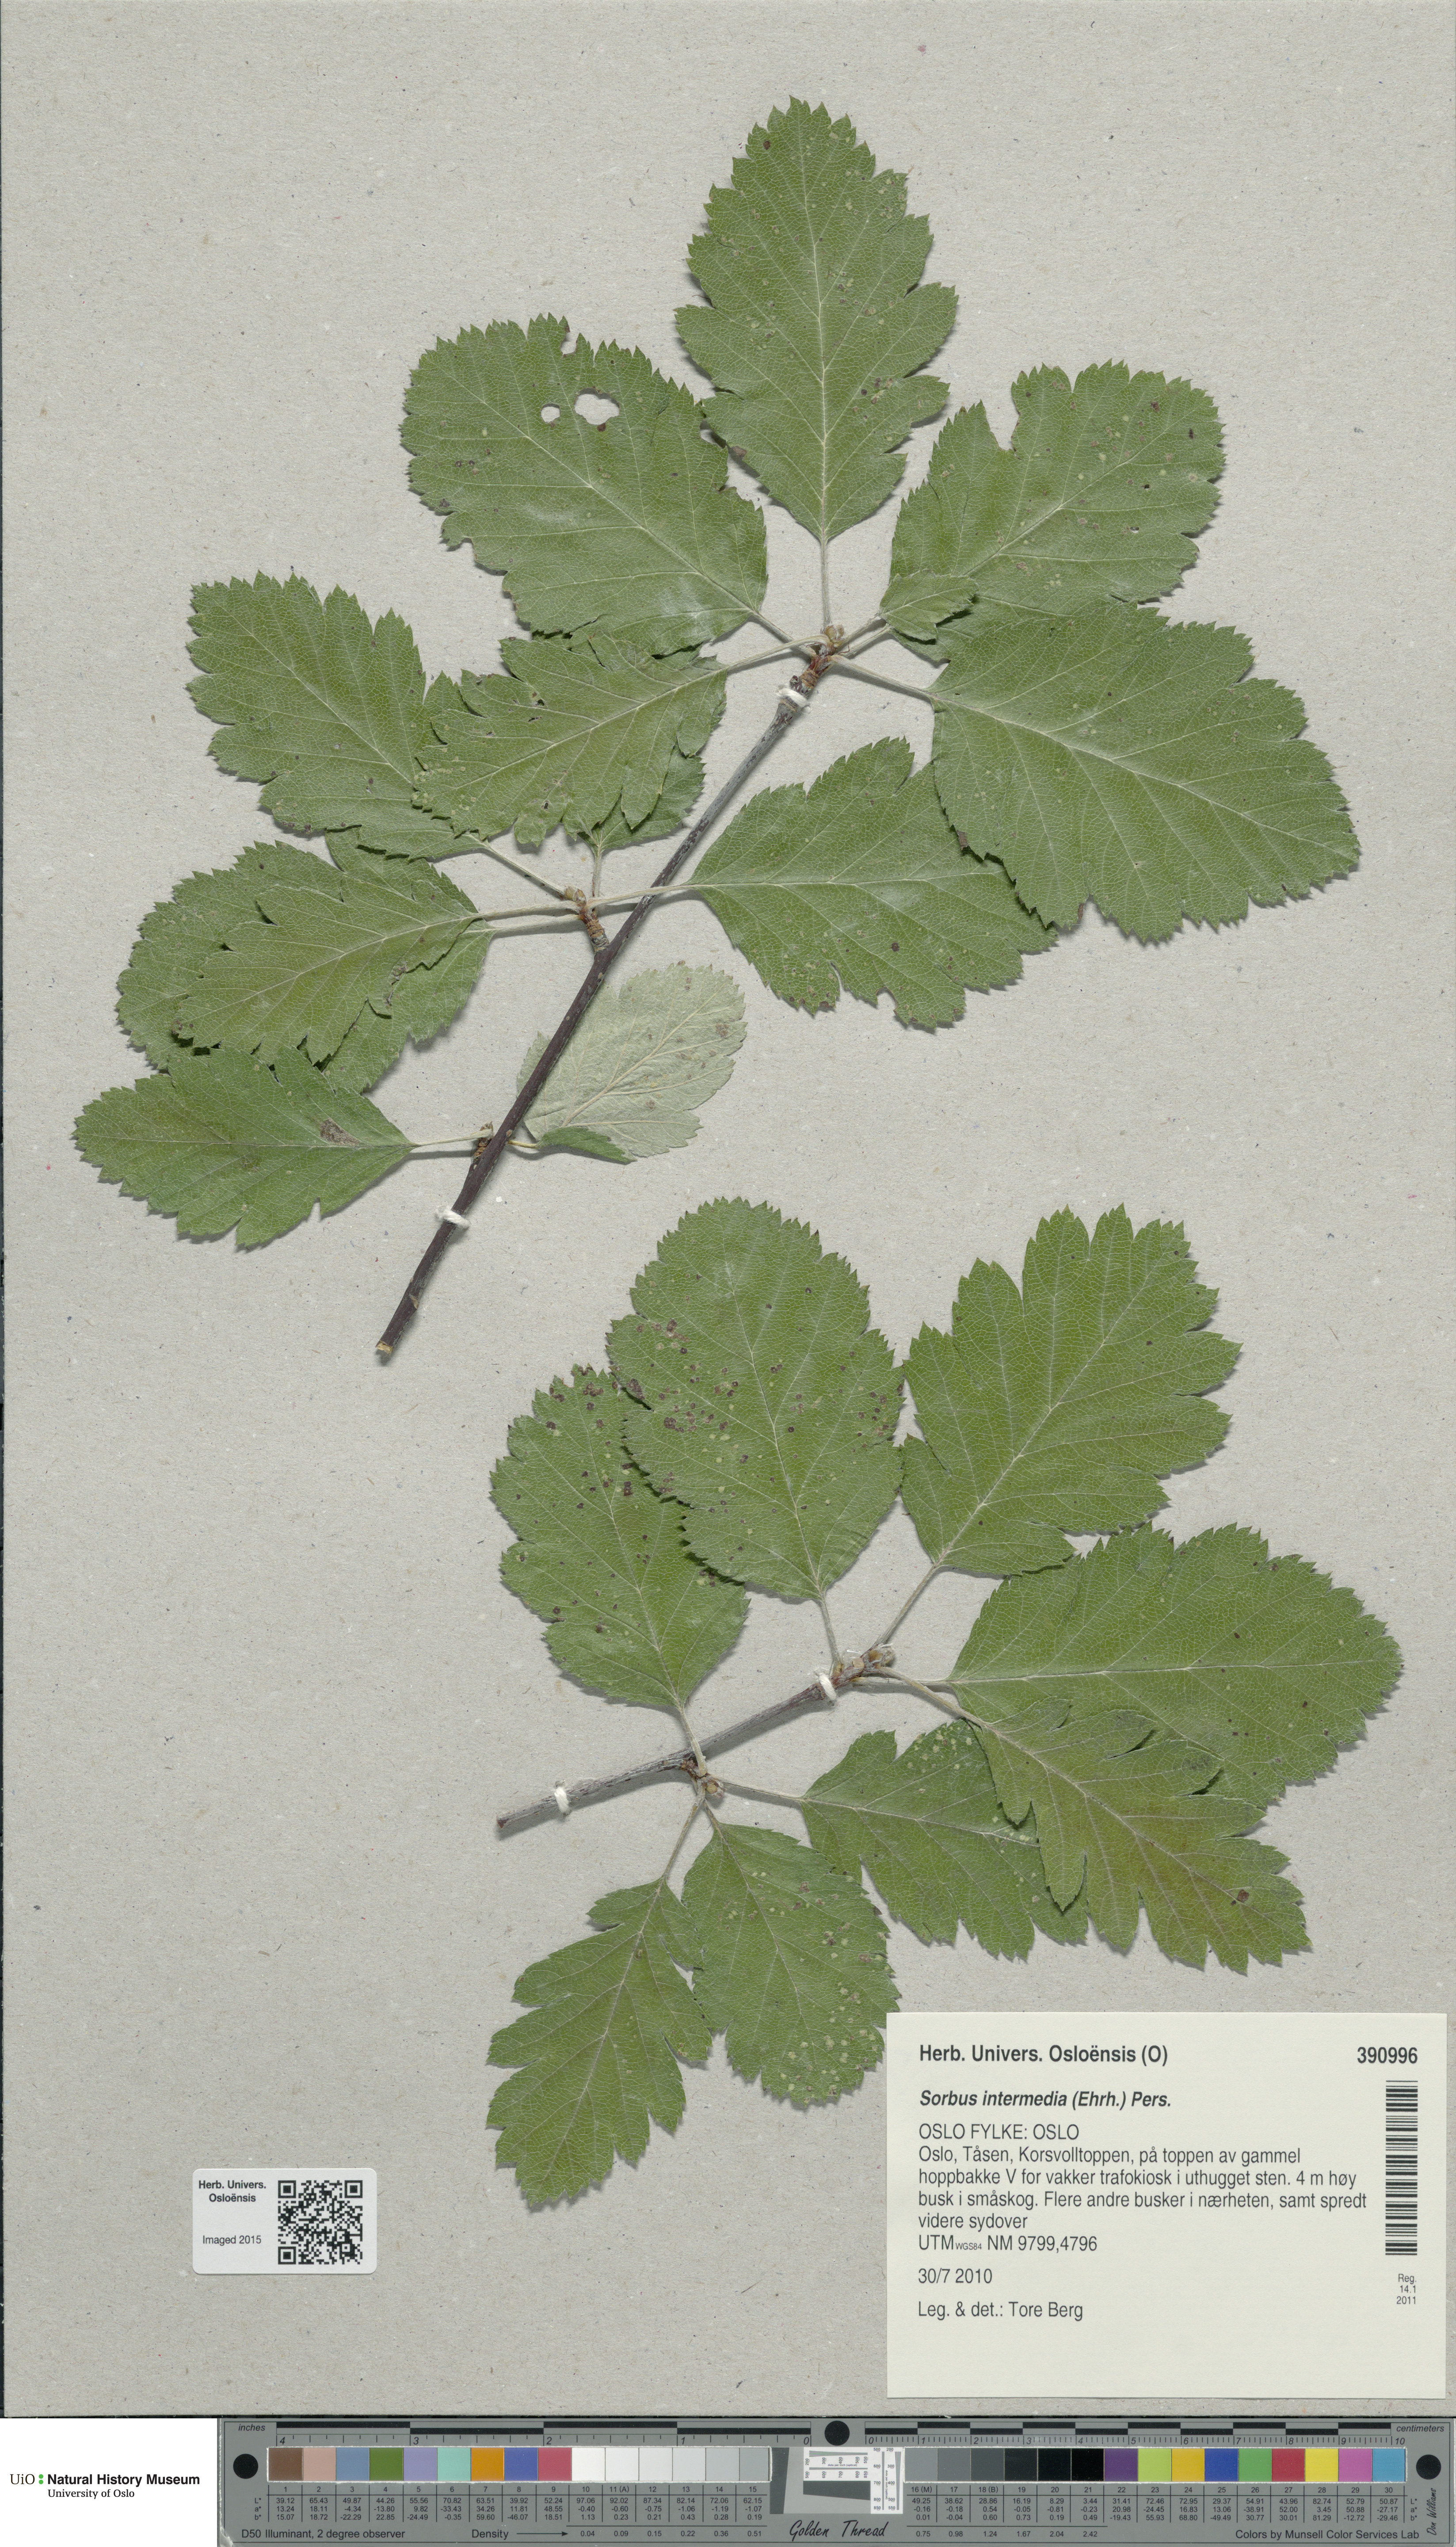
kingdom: Plantae
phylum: Tracheophyta
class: Magnoliopsida
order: Rosales
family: Rosaceae
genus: Scandosorbus
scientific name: Scandosorbus intermedia
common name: Swedish whitebeam
